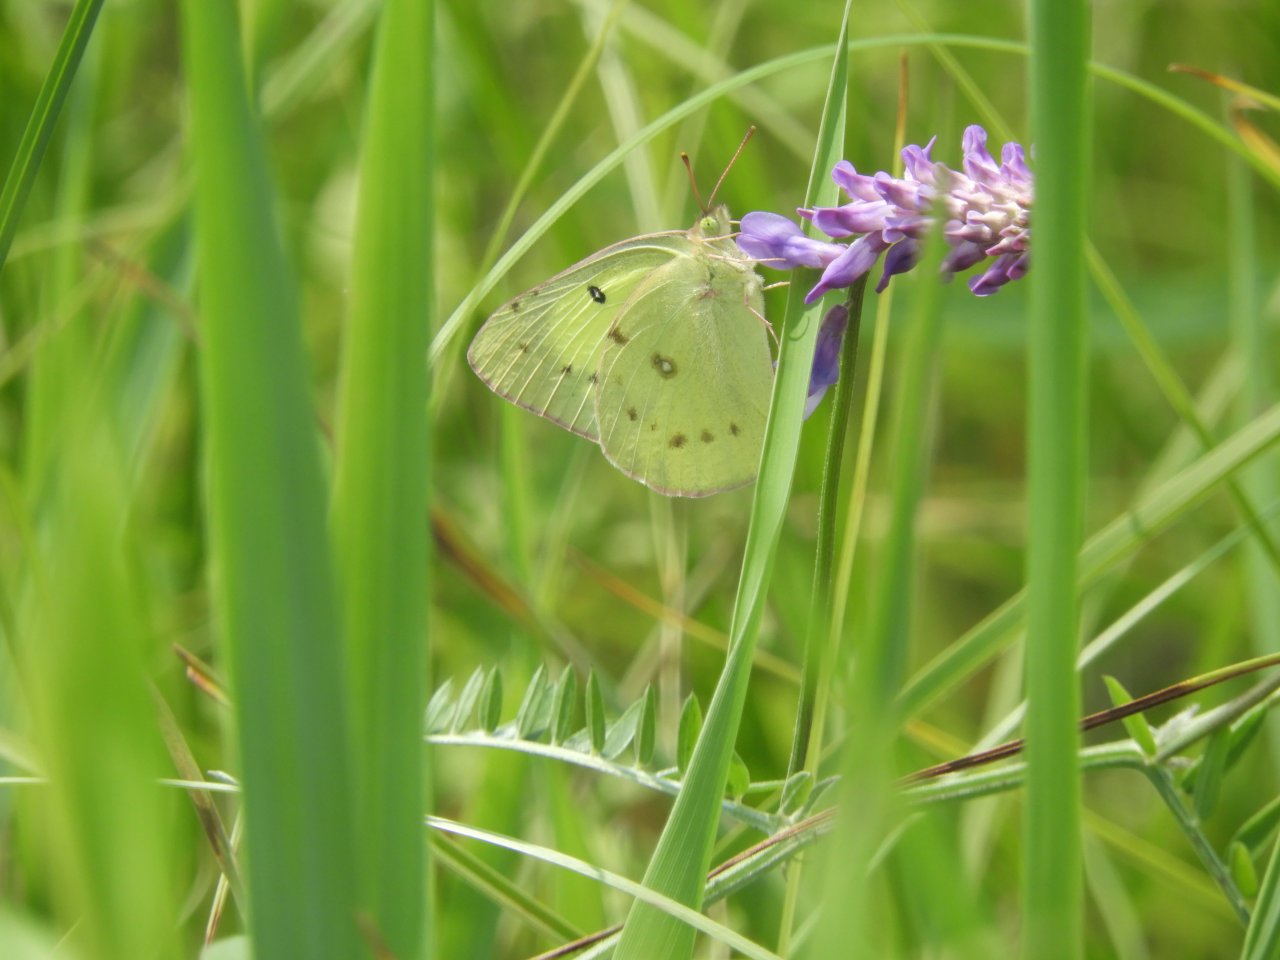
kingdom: Animalia
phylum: Arthropoda
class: Insecta
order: Lepidoptera
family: Pieridae
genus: Colias
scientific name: Colias philodice
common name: Clouded Sulphur
